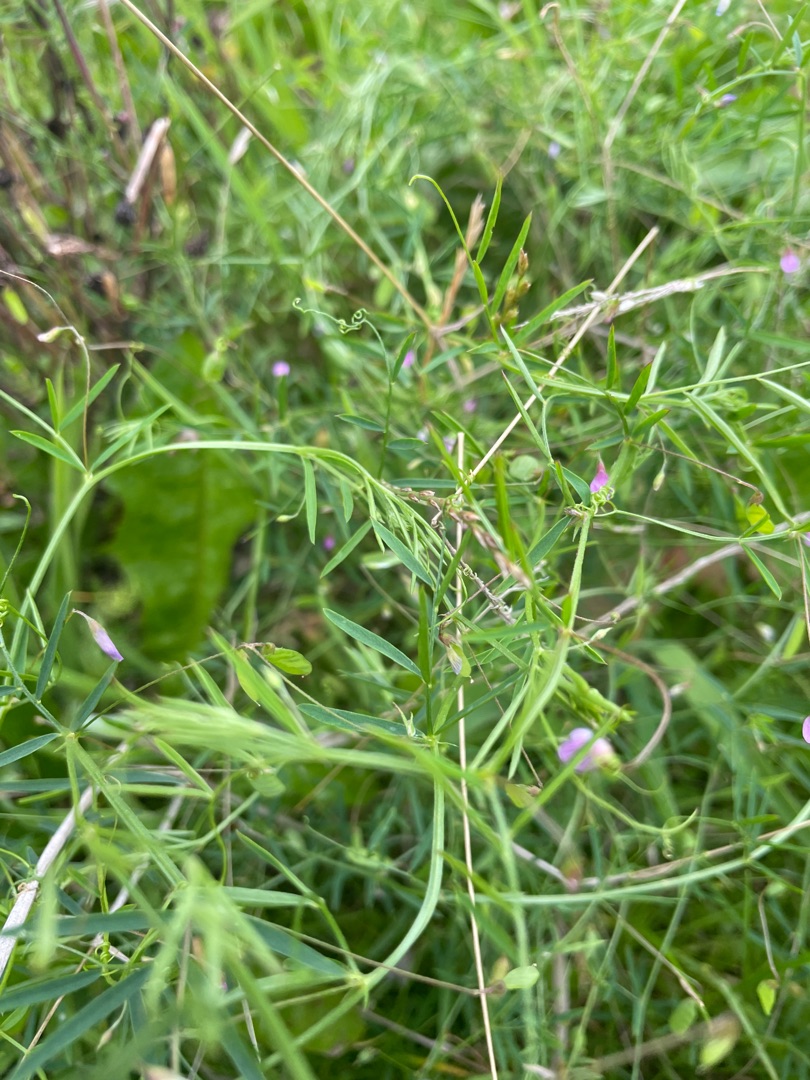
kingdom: Plantae
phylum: Tracheophyta
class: Magnoliopsida
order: Fabales
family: Fabaceae
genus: Vicia
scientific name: Vicia tetrasperma
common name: Tadder-vikke
